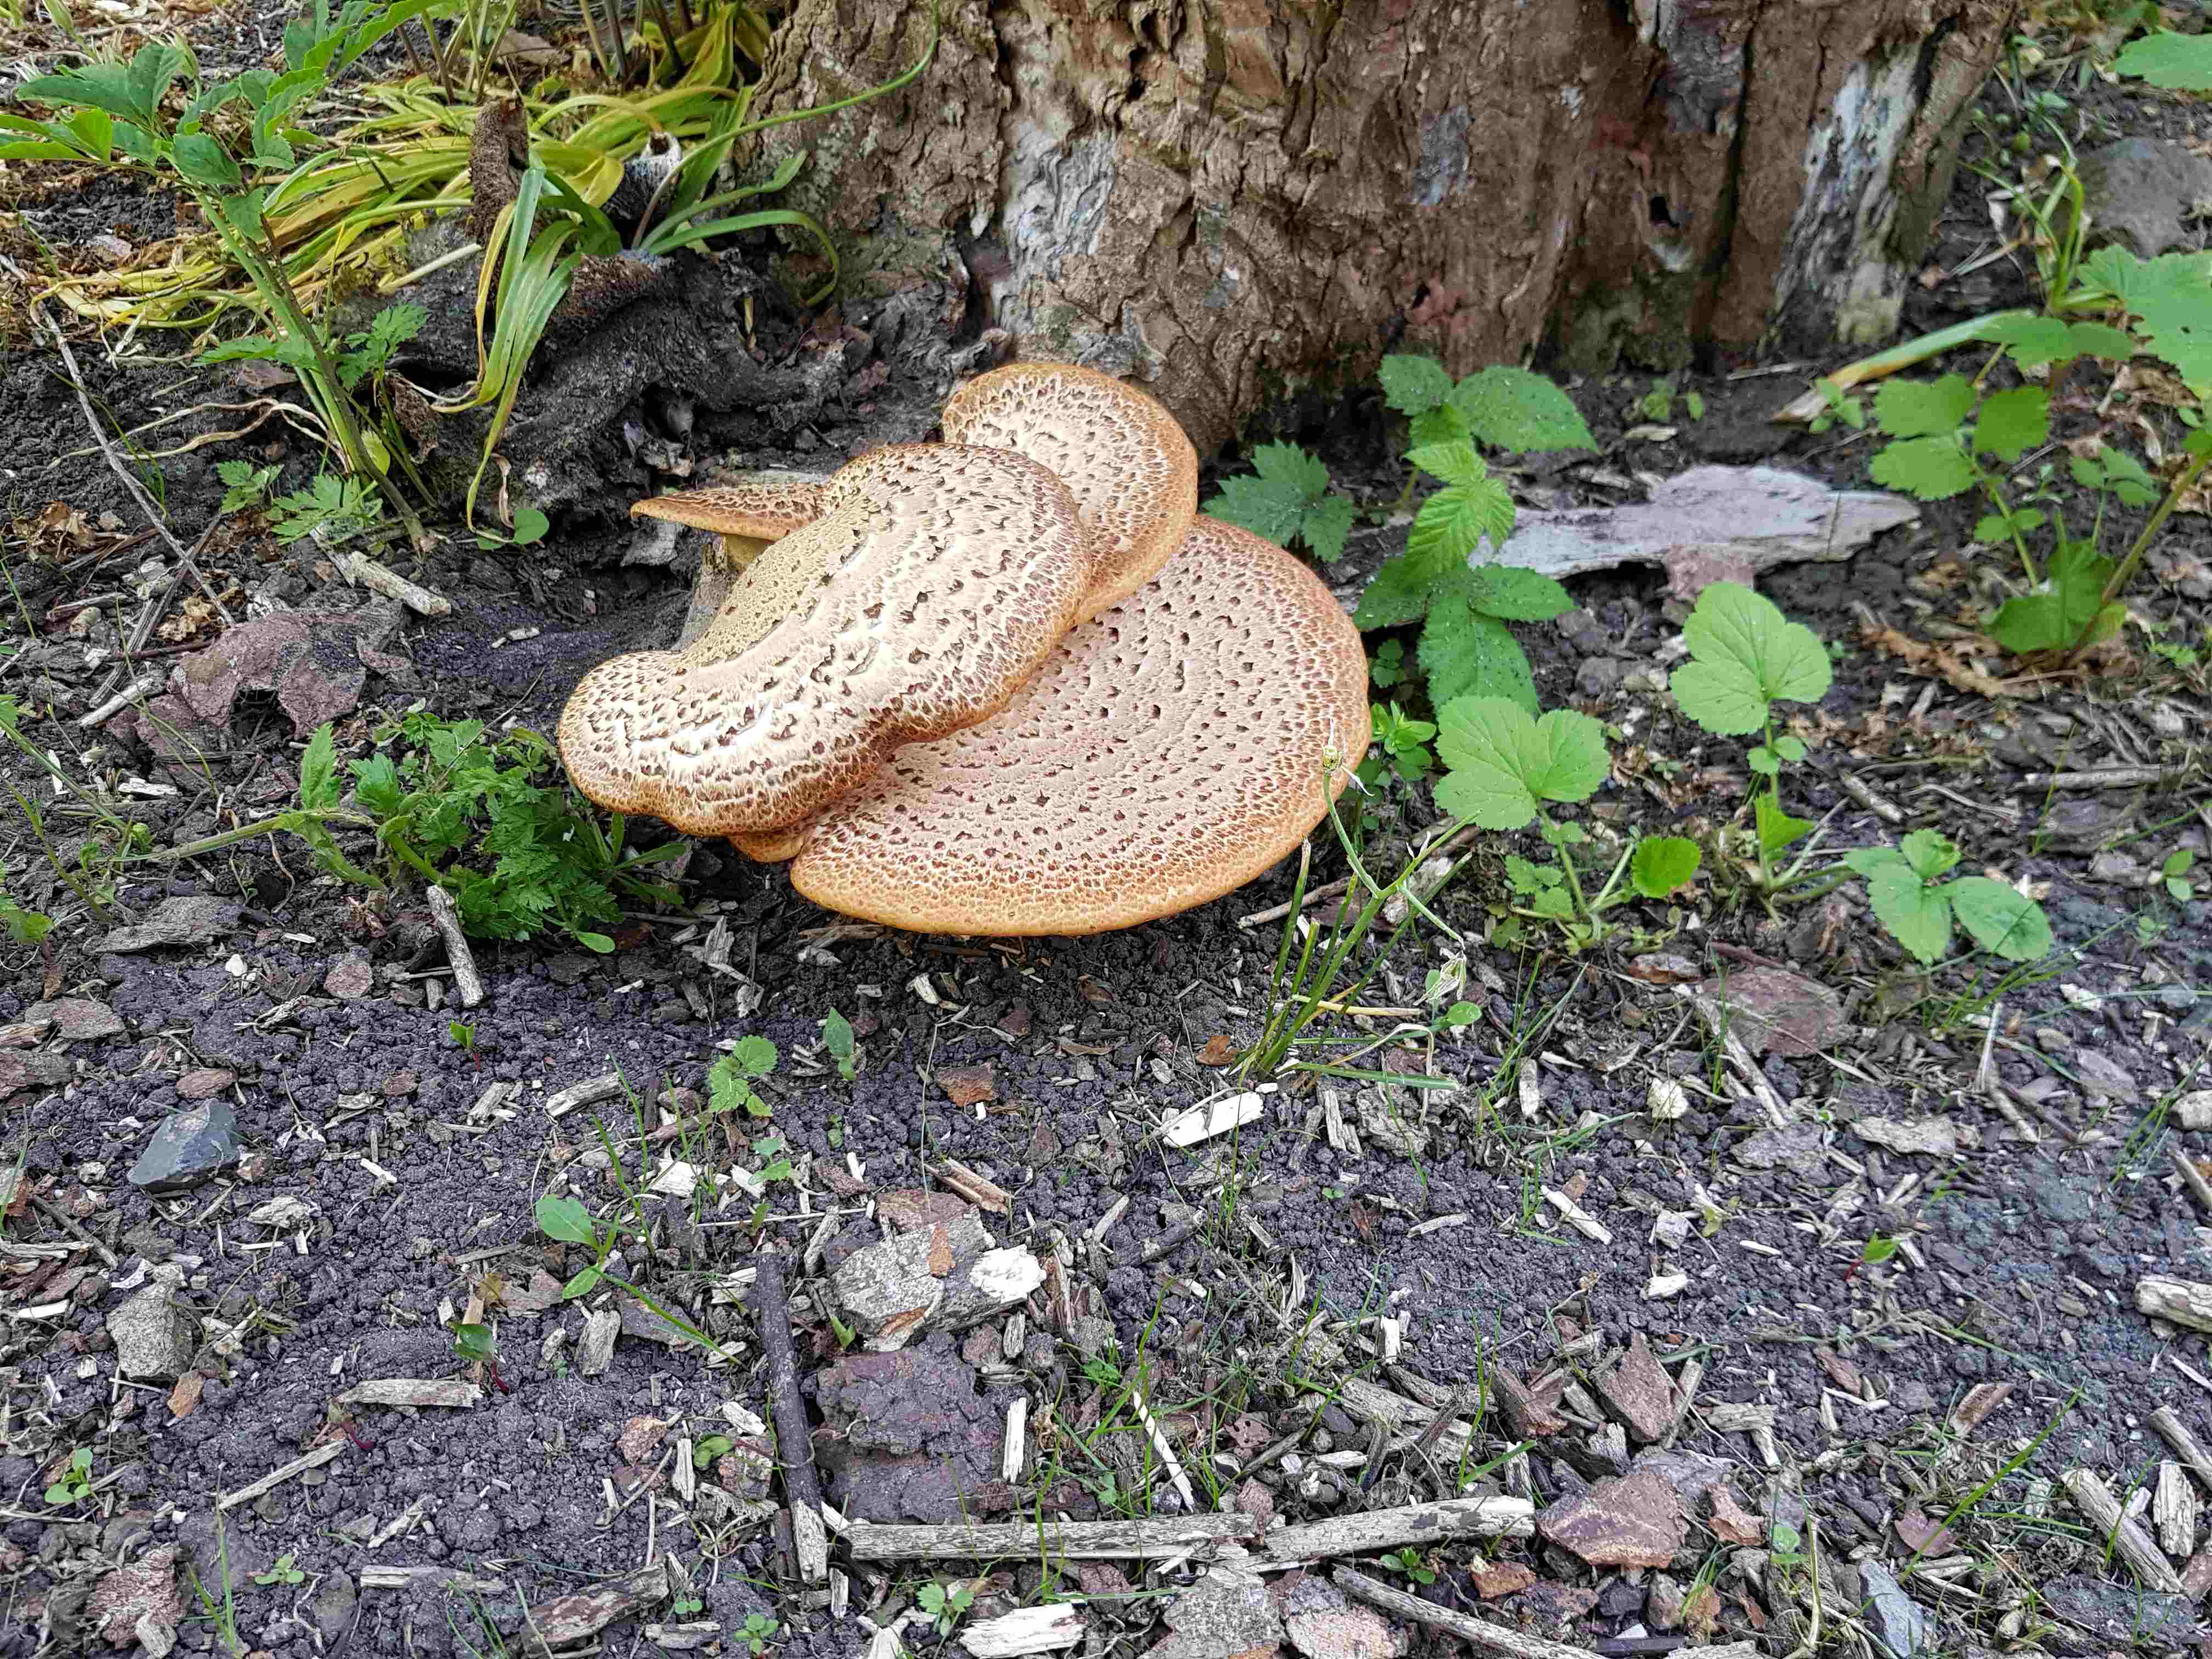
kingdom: Fungi
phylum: Basidiomycota
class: Agaricomycetes
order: Polyporales
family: Polyporaceae
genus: Cerioporus
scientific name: Cerioporus squamosus
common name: skællet stilkporesvamp
